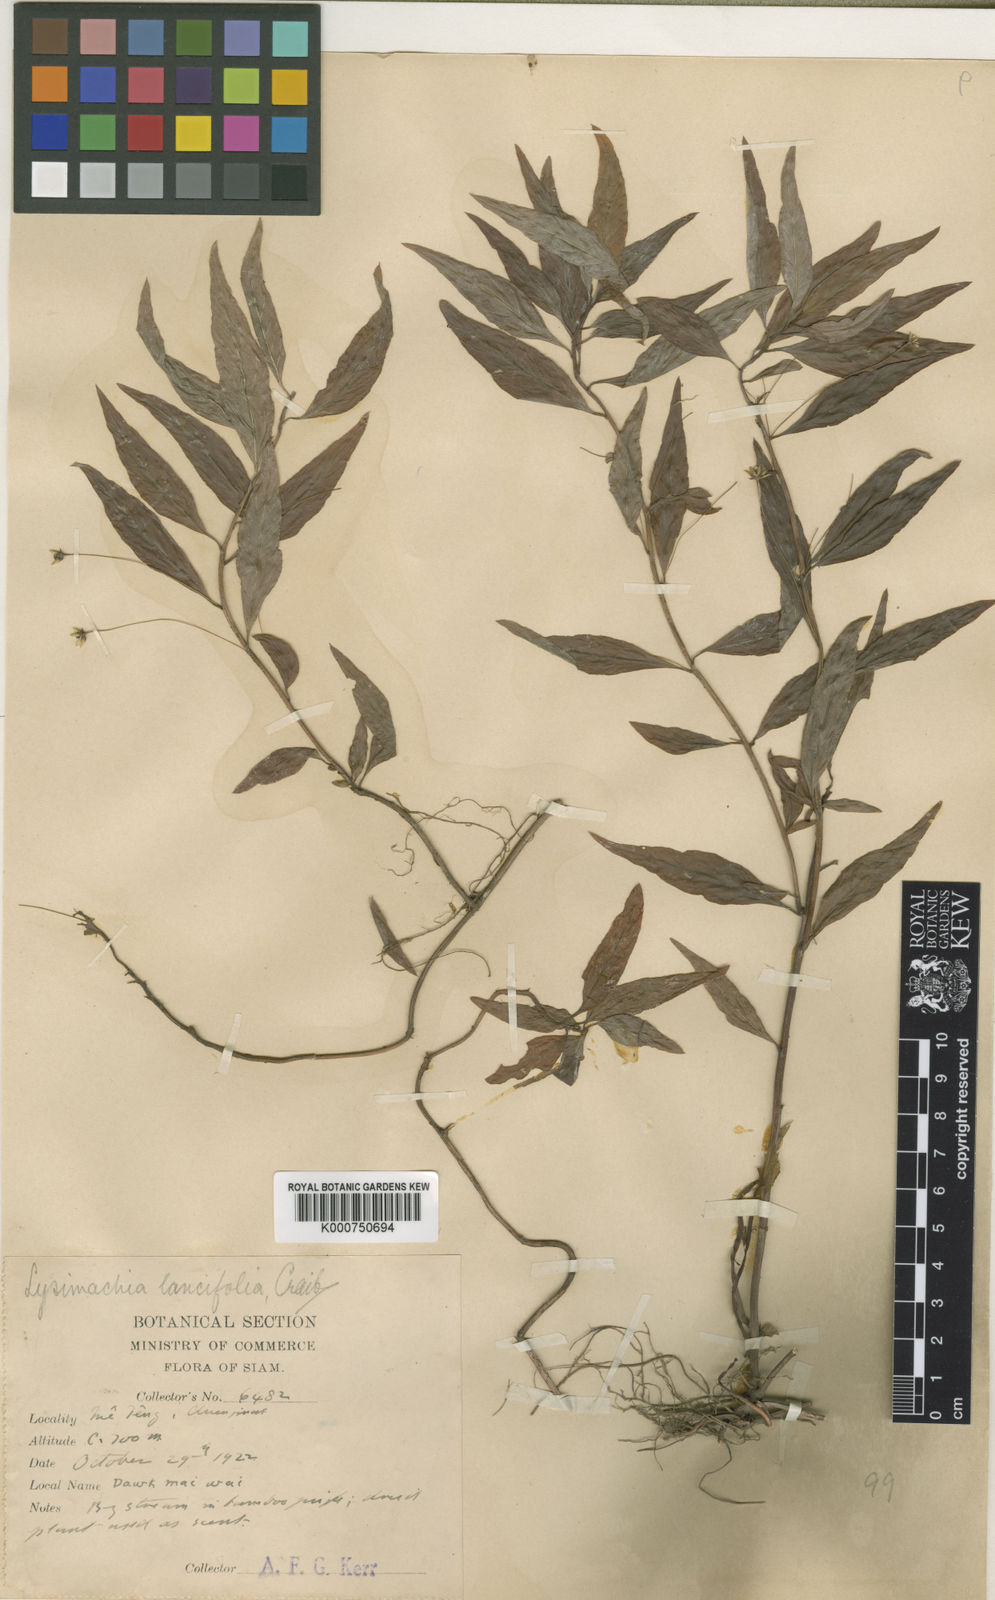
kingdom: Plantae
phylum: Tracheophyta
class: Magnoliopsida
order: Ericales
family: Primulaceae
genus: Lysimachia
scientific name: Lysimachia lancifolia
